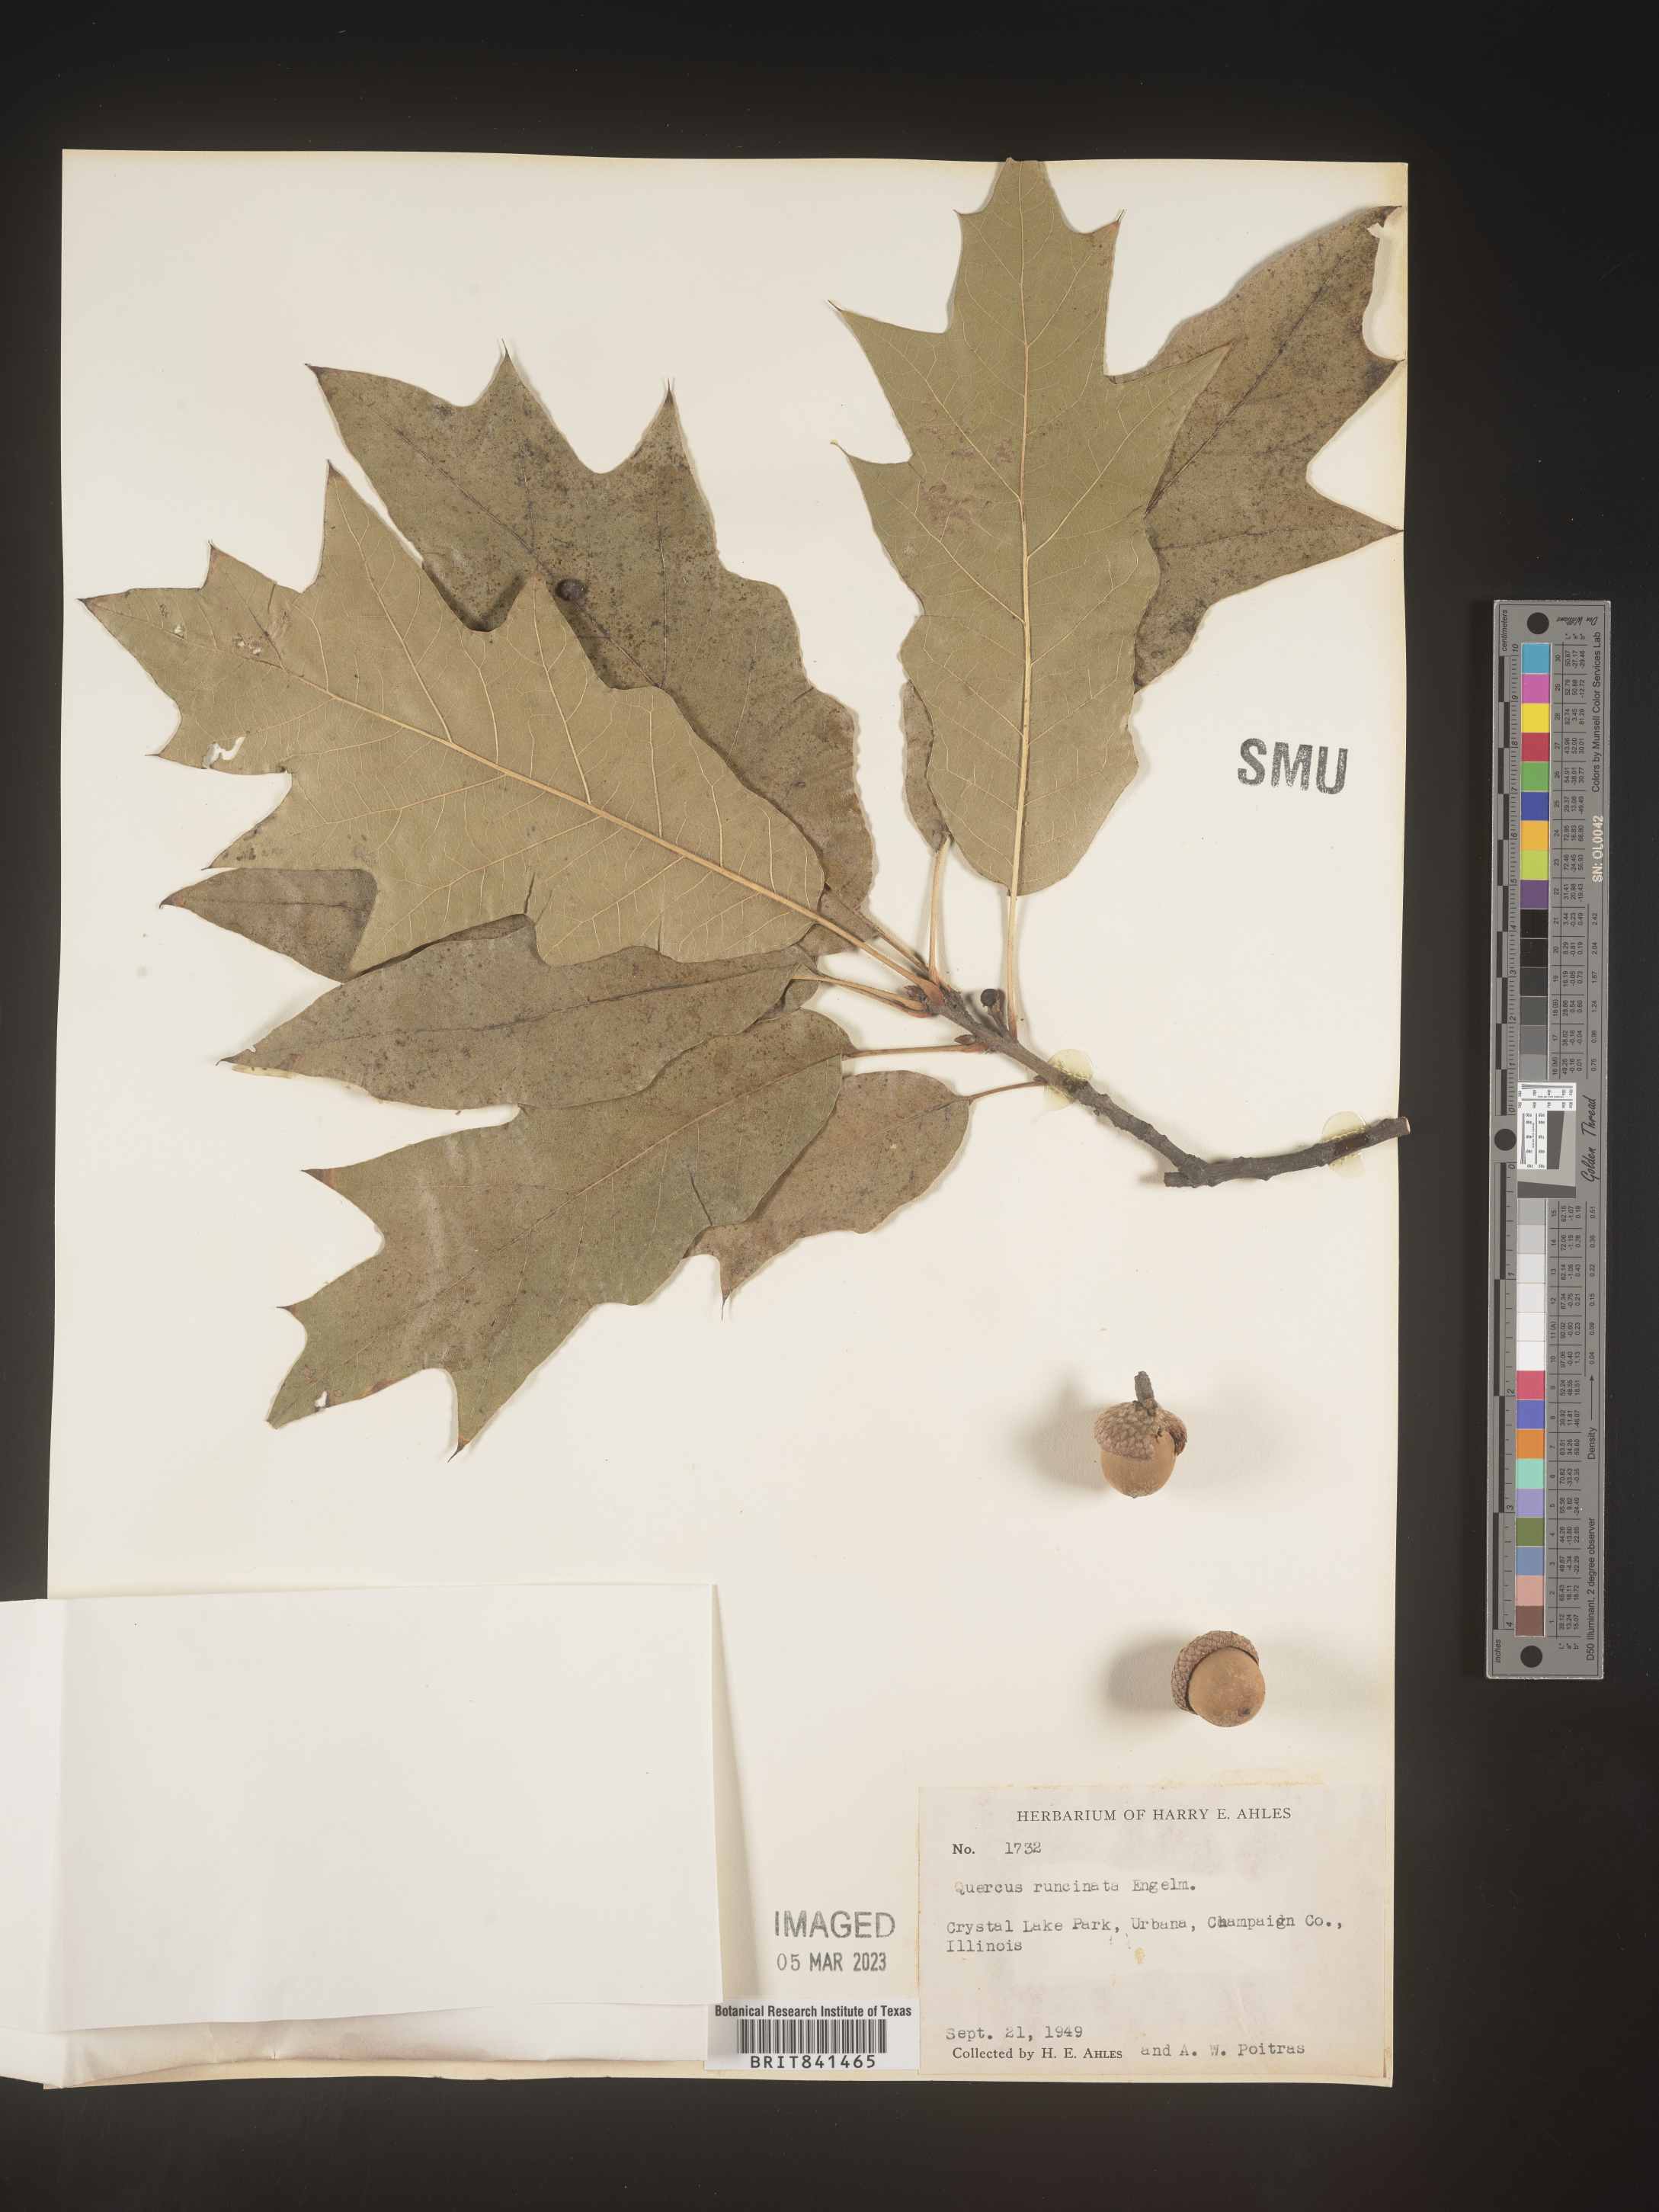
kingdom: Plantae
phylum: Tracheophyta
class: Magnoliopsida
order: Fagales
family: Fagaceae
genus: Quercus
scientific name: Quercus runcinata
